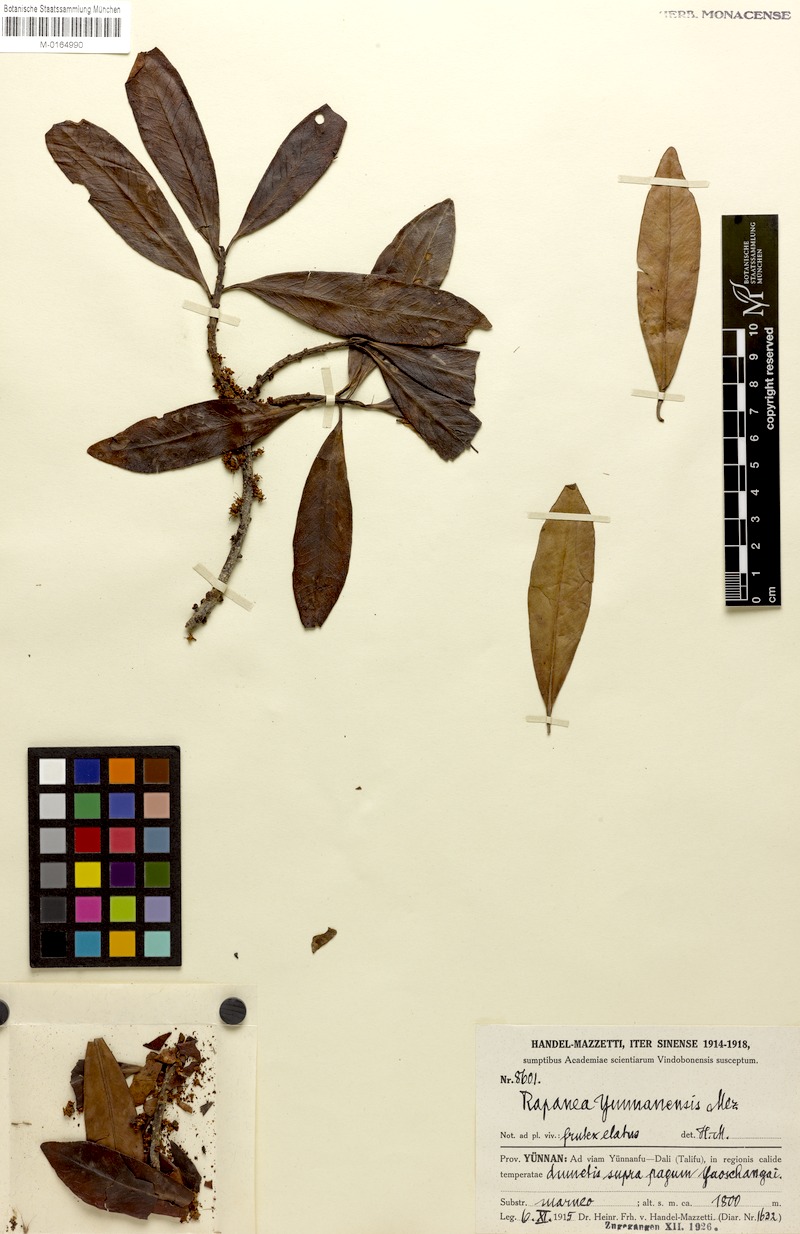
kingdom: Plantae
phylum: Tracheophyta
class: Magnoliopsida
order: Ericales
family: Primulaceae
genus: Myrsine
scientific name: Myrsine seguinii
